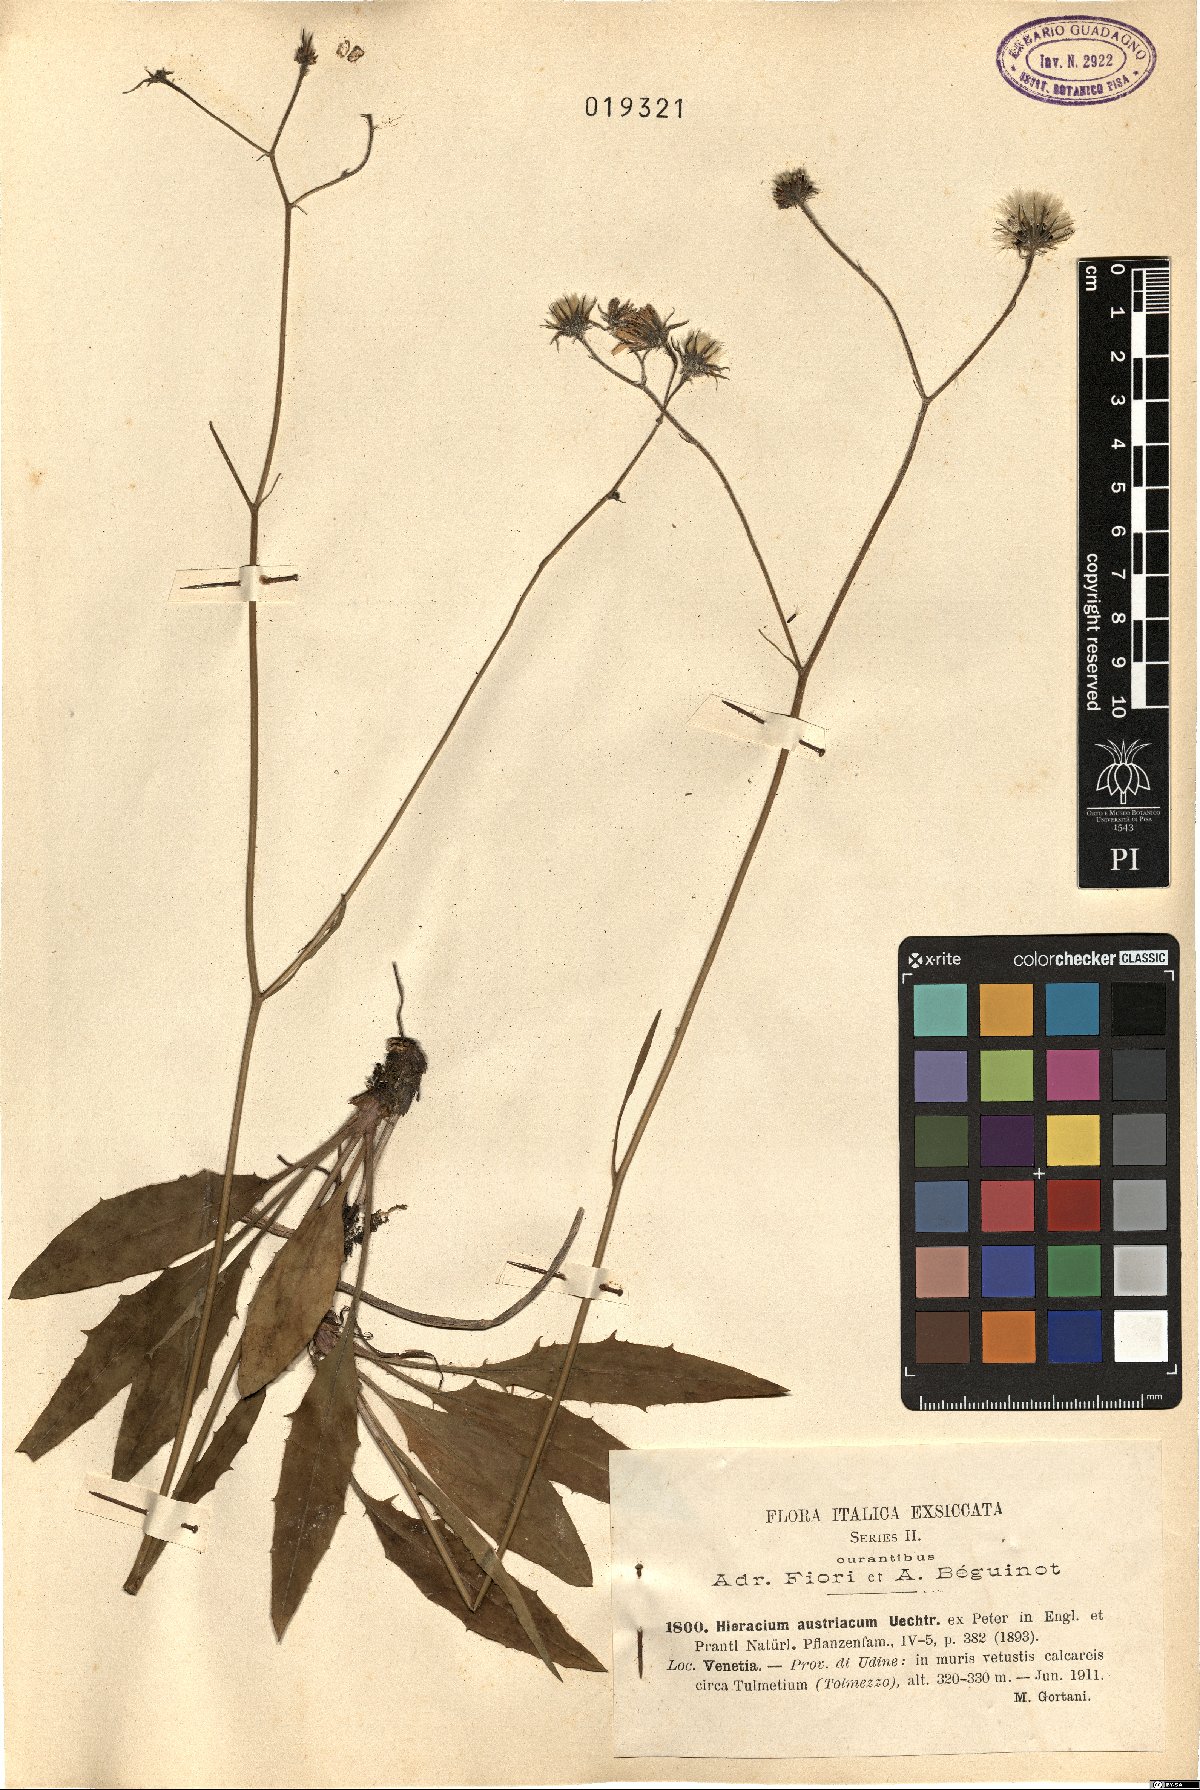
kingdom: Plantae
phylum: Tracheophyta
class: Magnoliopsida
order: Asterales
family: Asteraceae
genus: Hieracium
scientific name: Hieracium austriacum
